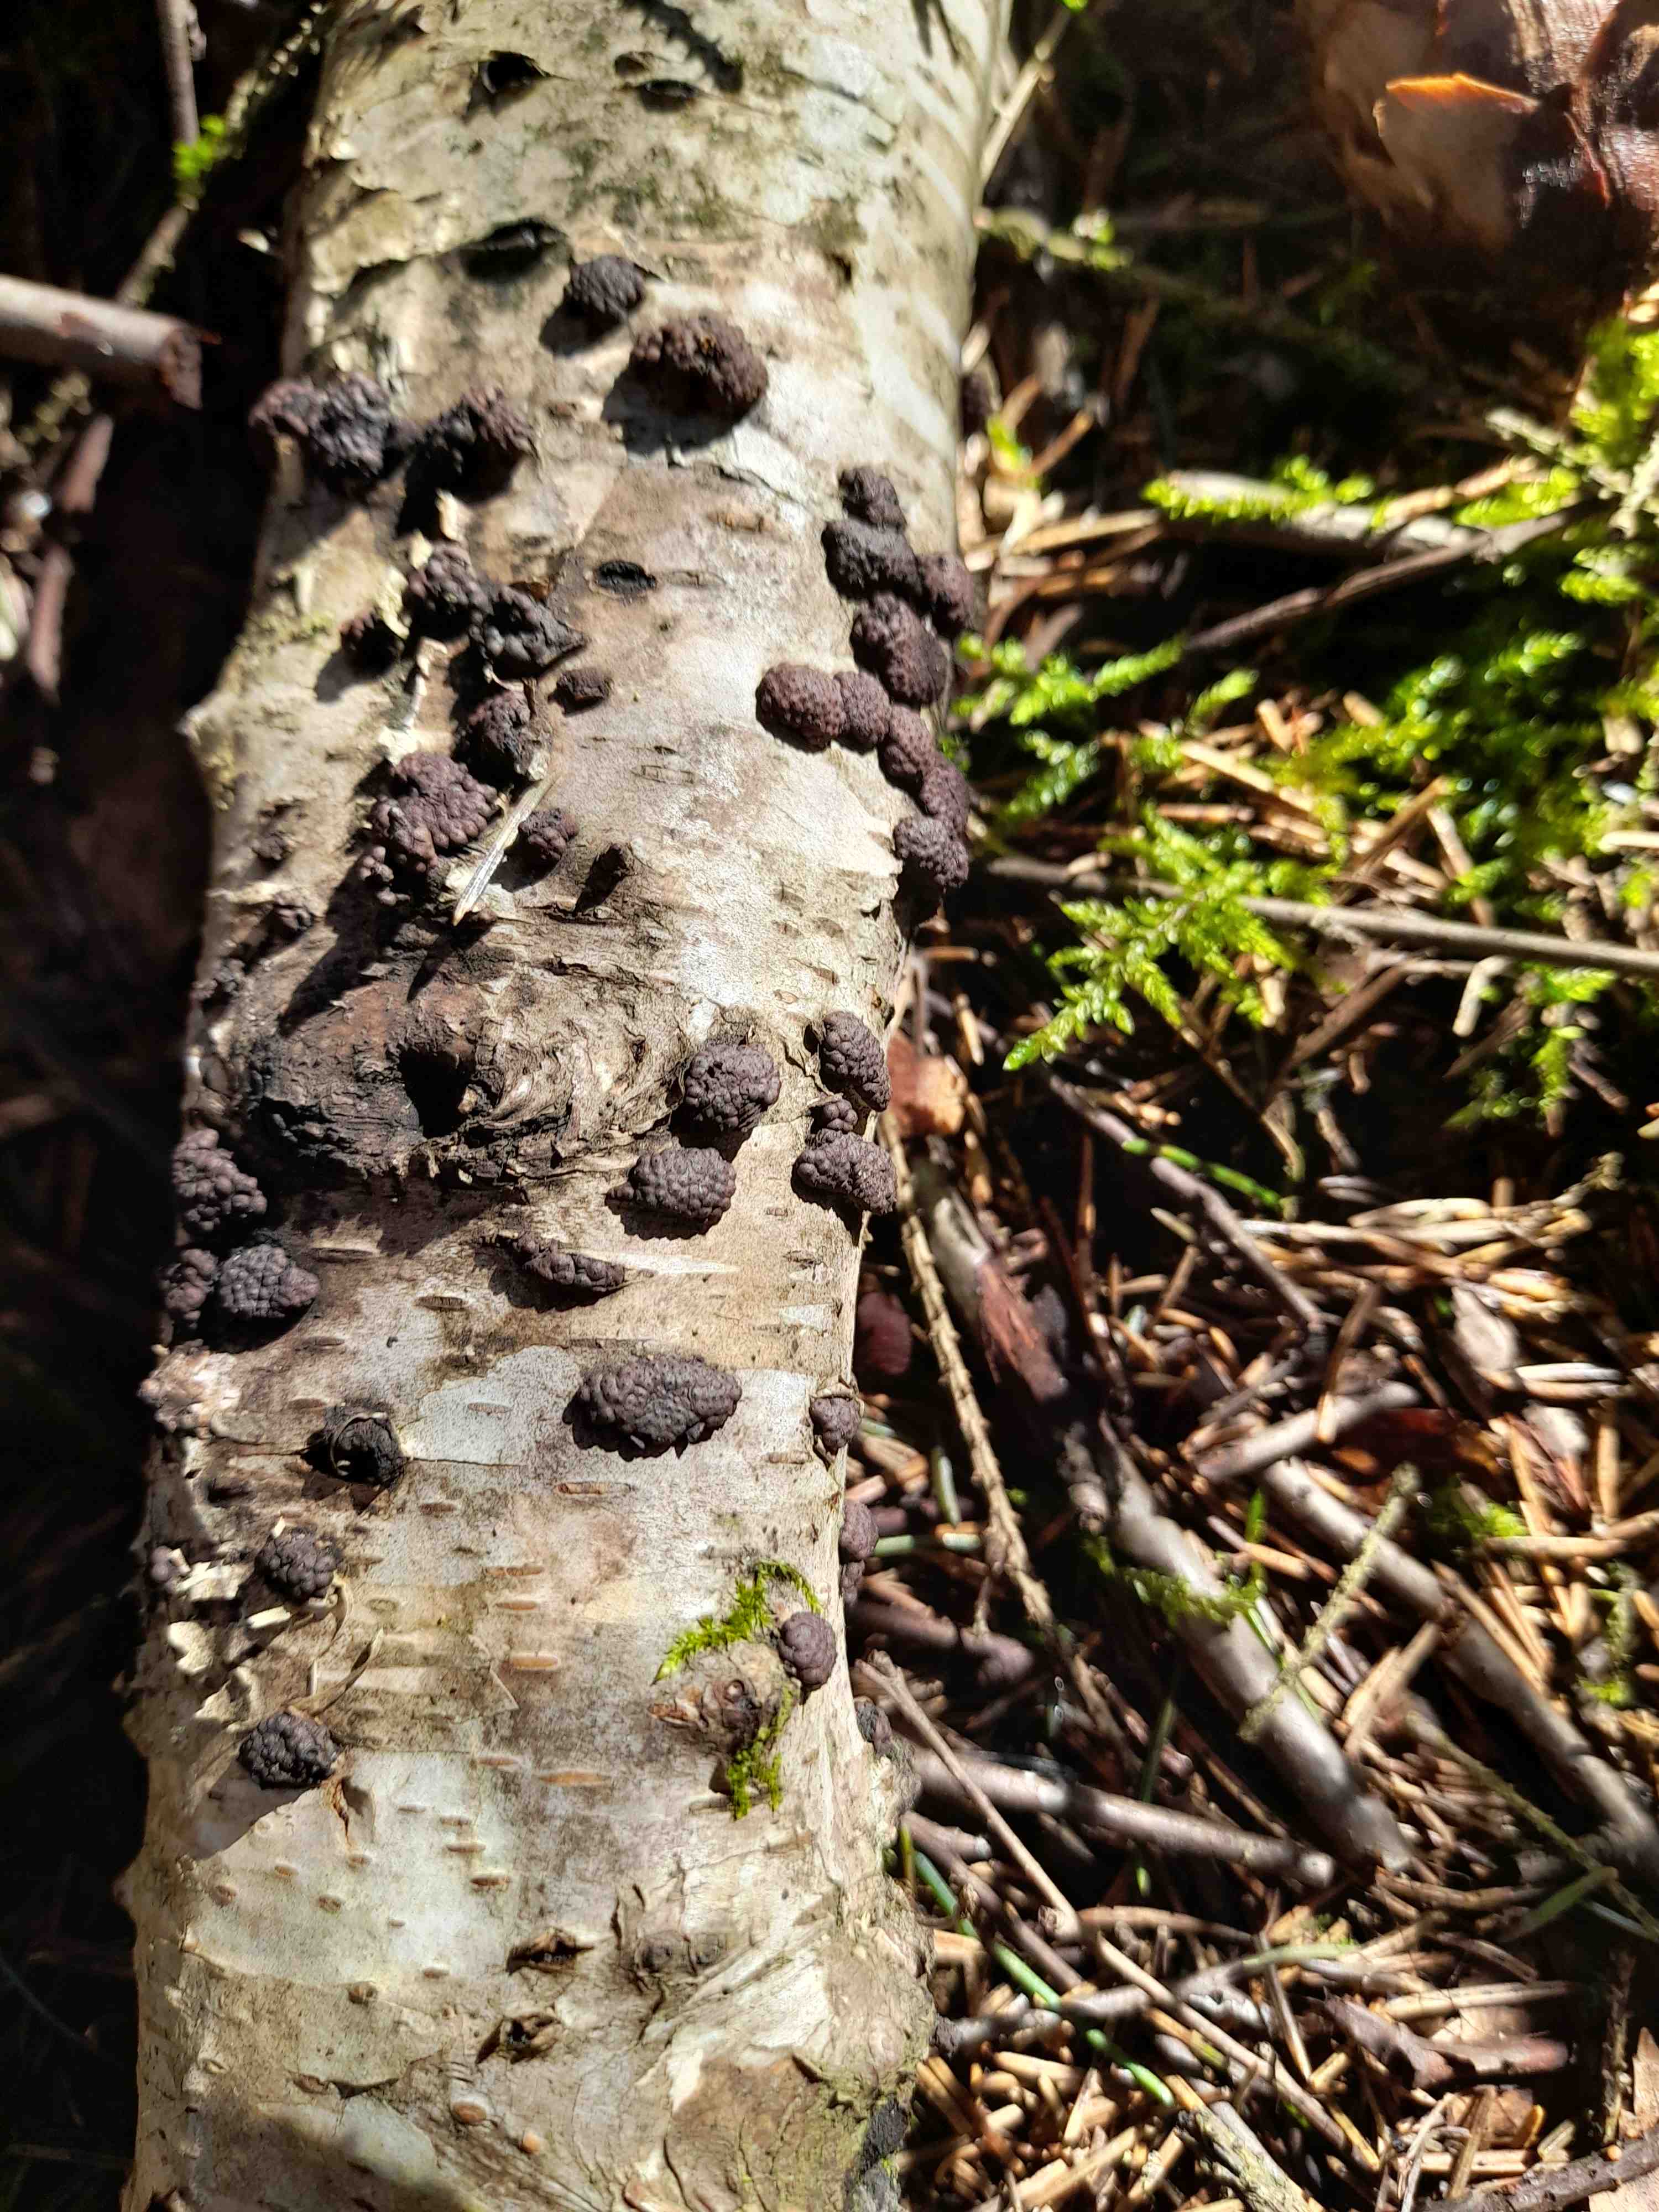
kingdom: Fungi
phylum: Ascomycota
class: Sordariomycetes
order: Xylariales
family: Hypoxylaceae
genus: Jackrogersella
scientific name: Jackrogersella multiformis
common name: foranderlig kulbær
